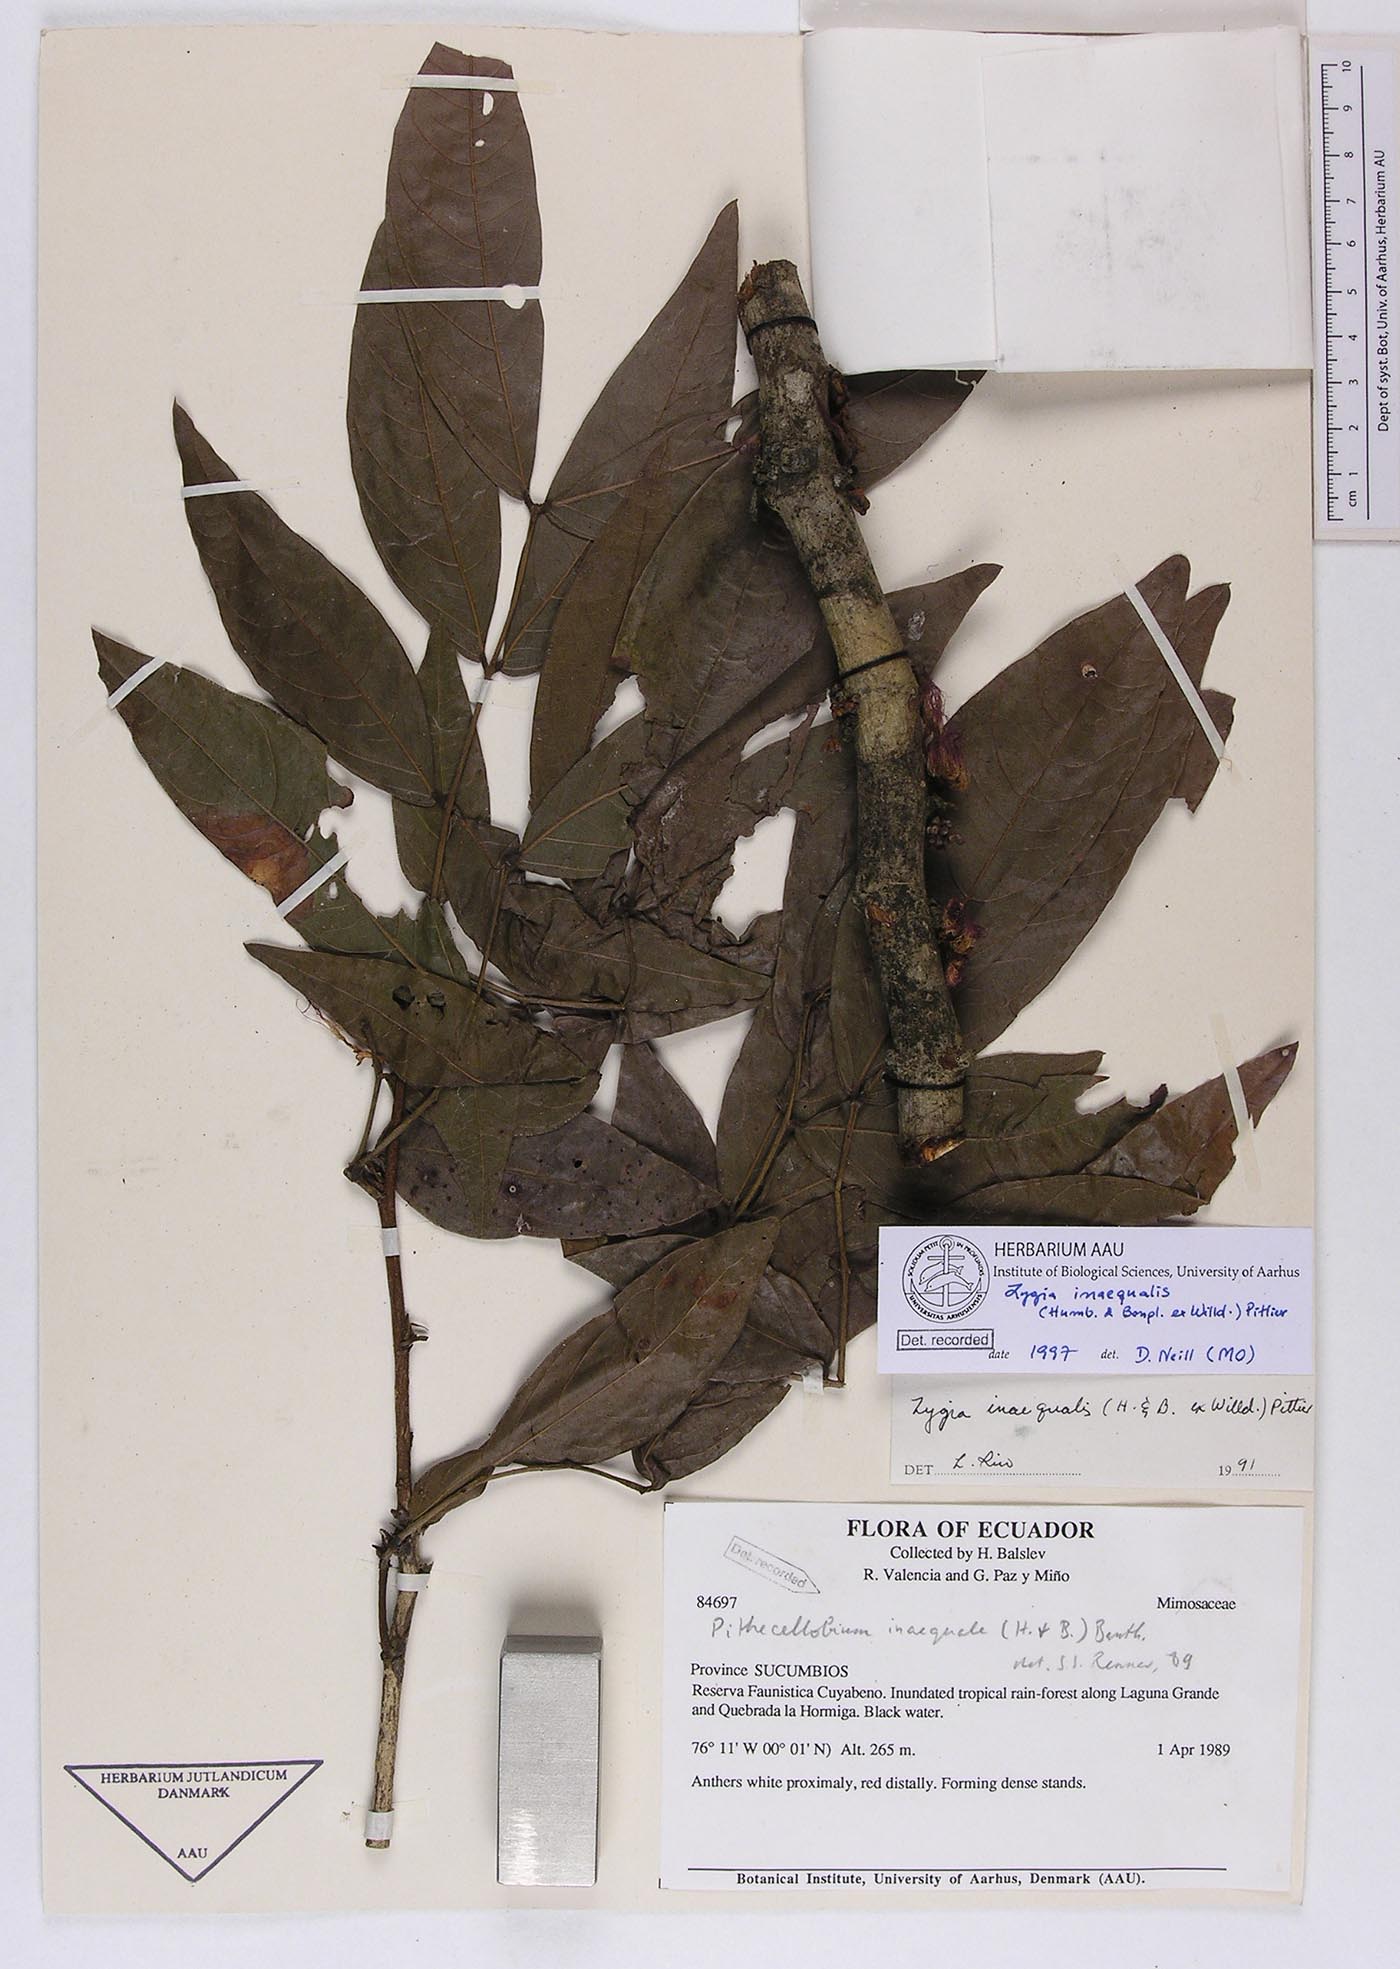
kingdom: Plantae
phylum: Tracheophyta
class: Magnoliopsida
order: Fabales
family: Fabaceae
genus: Zygia
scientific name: Zygia inaequalis
